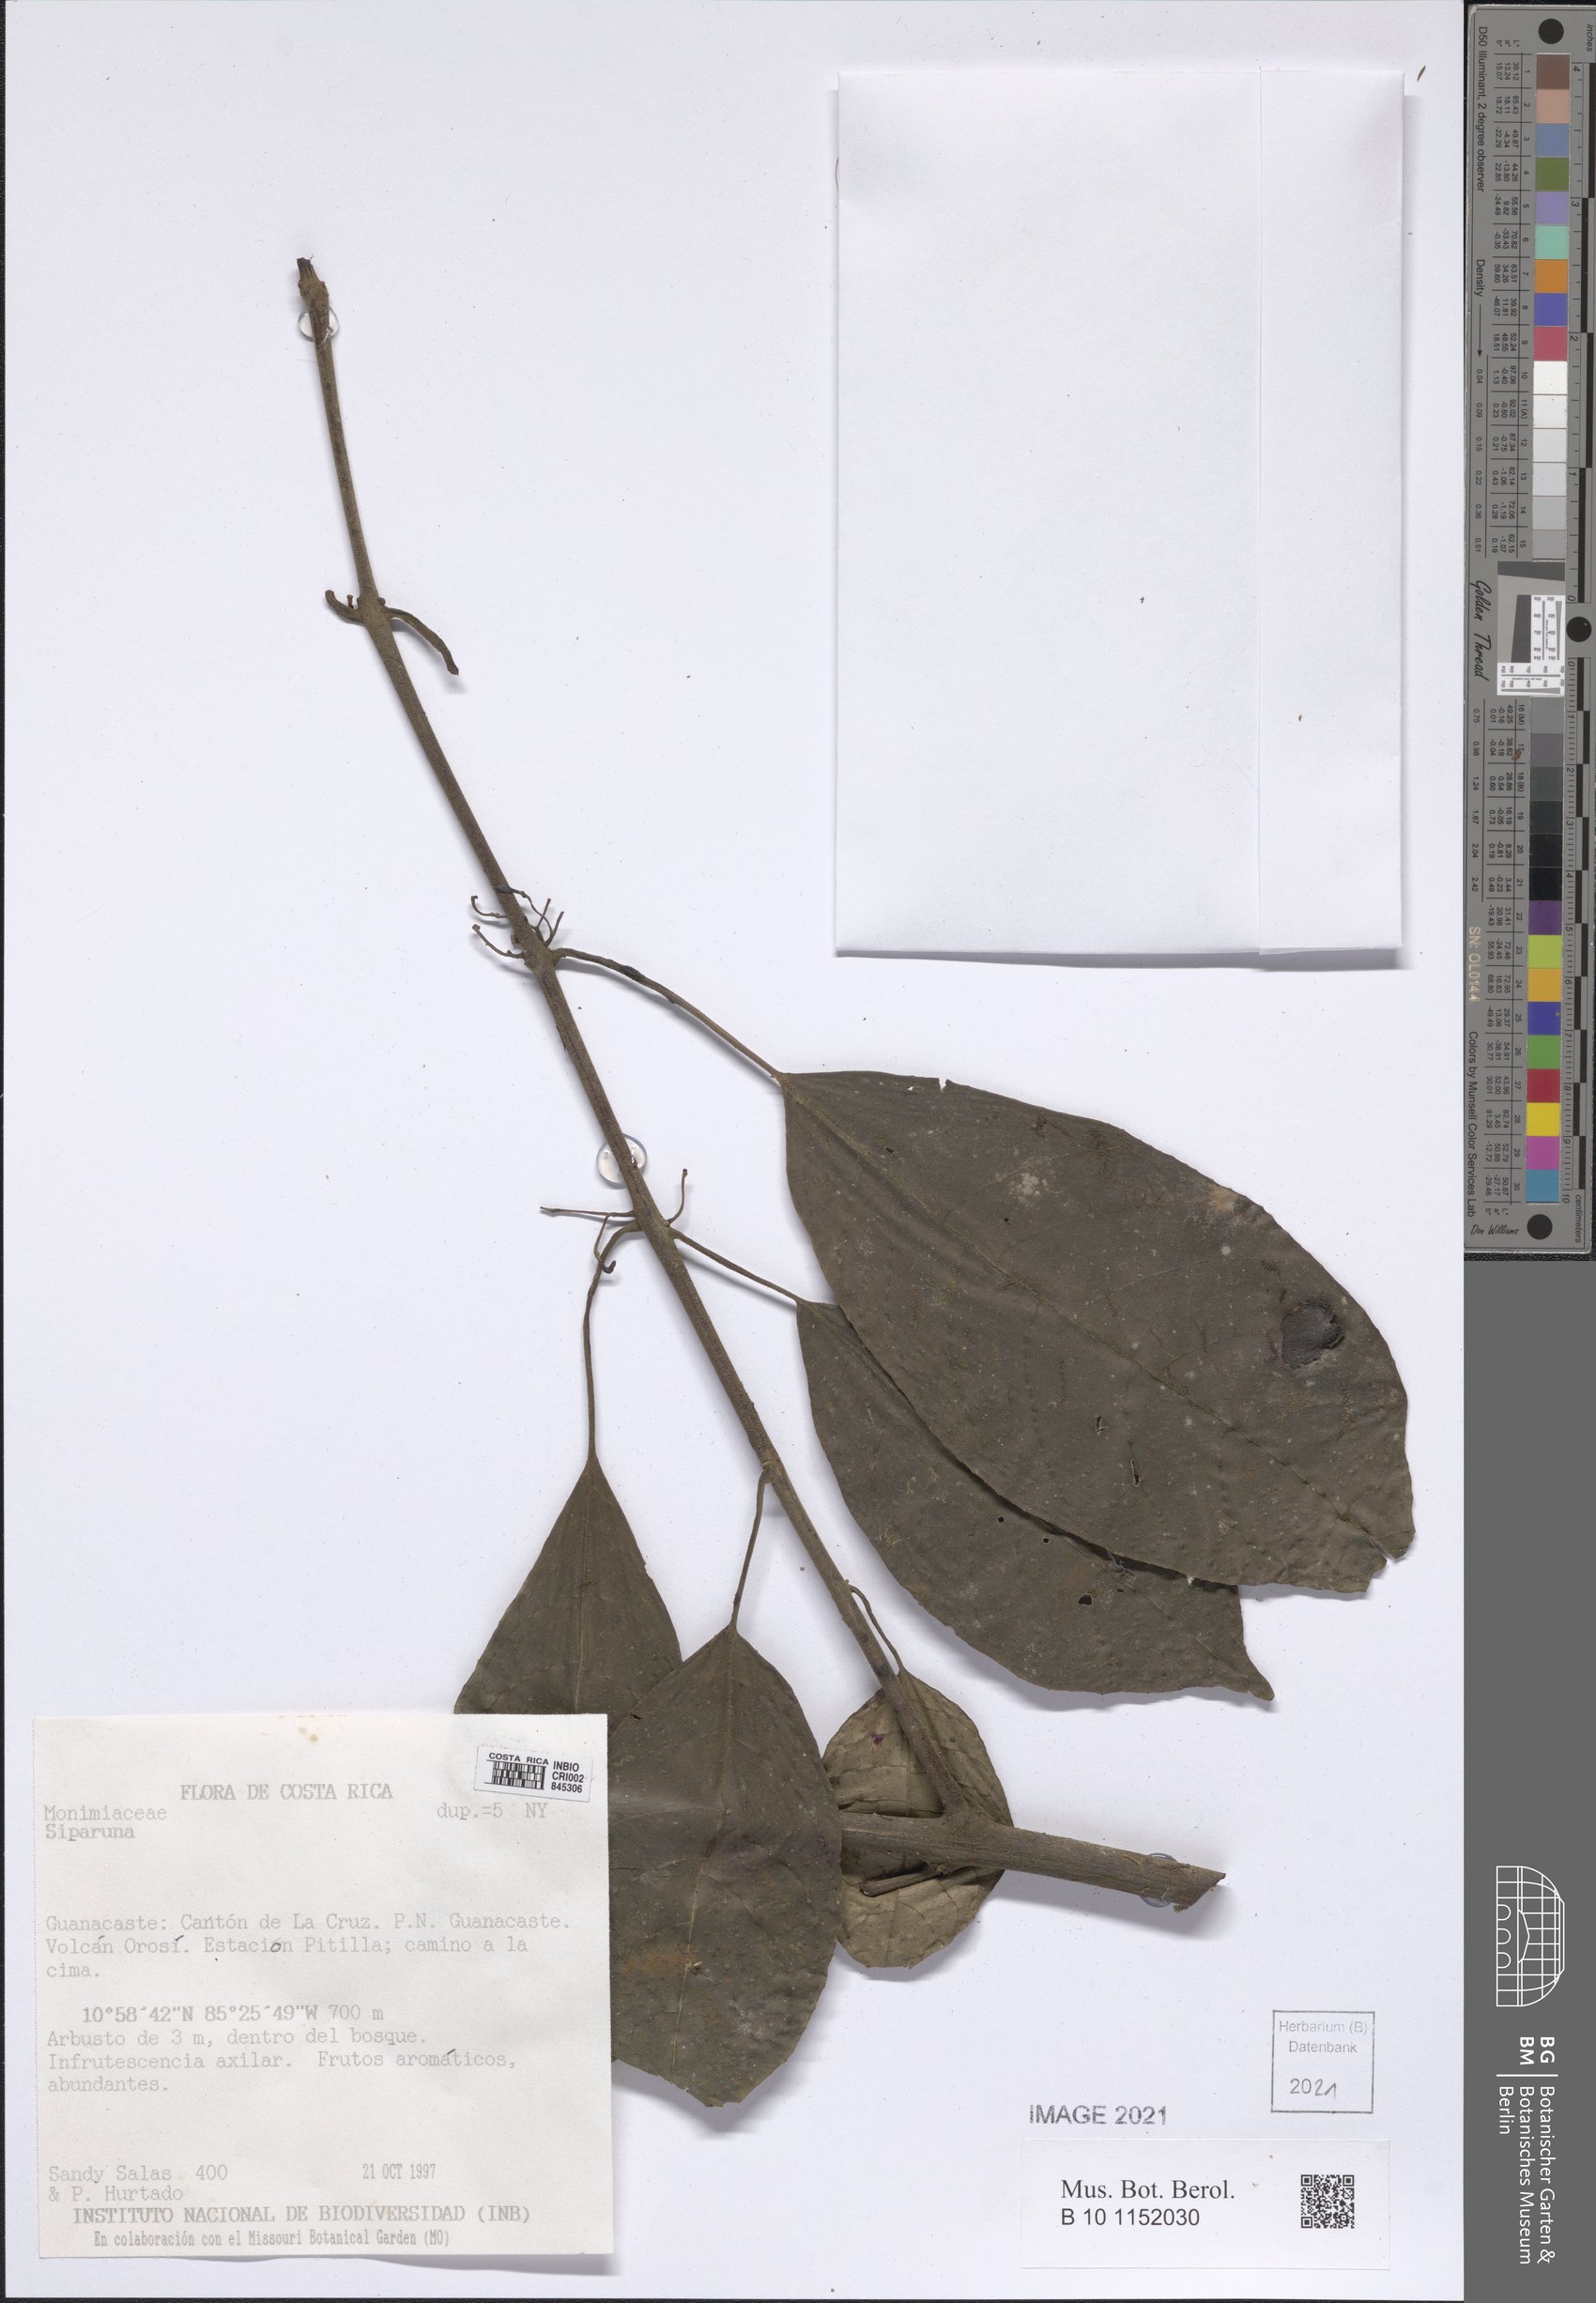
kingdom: Plantae
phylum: Tracheophyta
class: Magnoliopsida
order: Laurales
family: Siparunaceae
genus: Siparuna
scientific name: Siparuna
